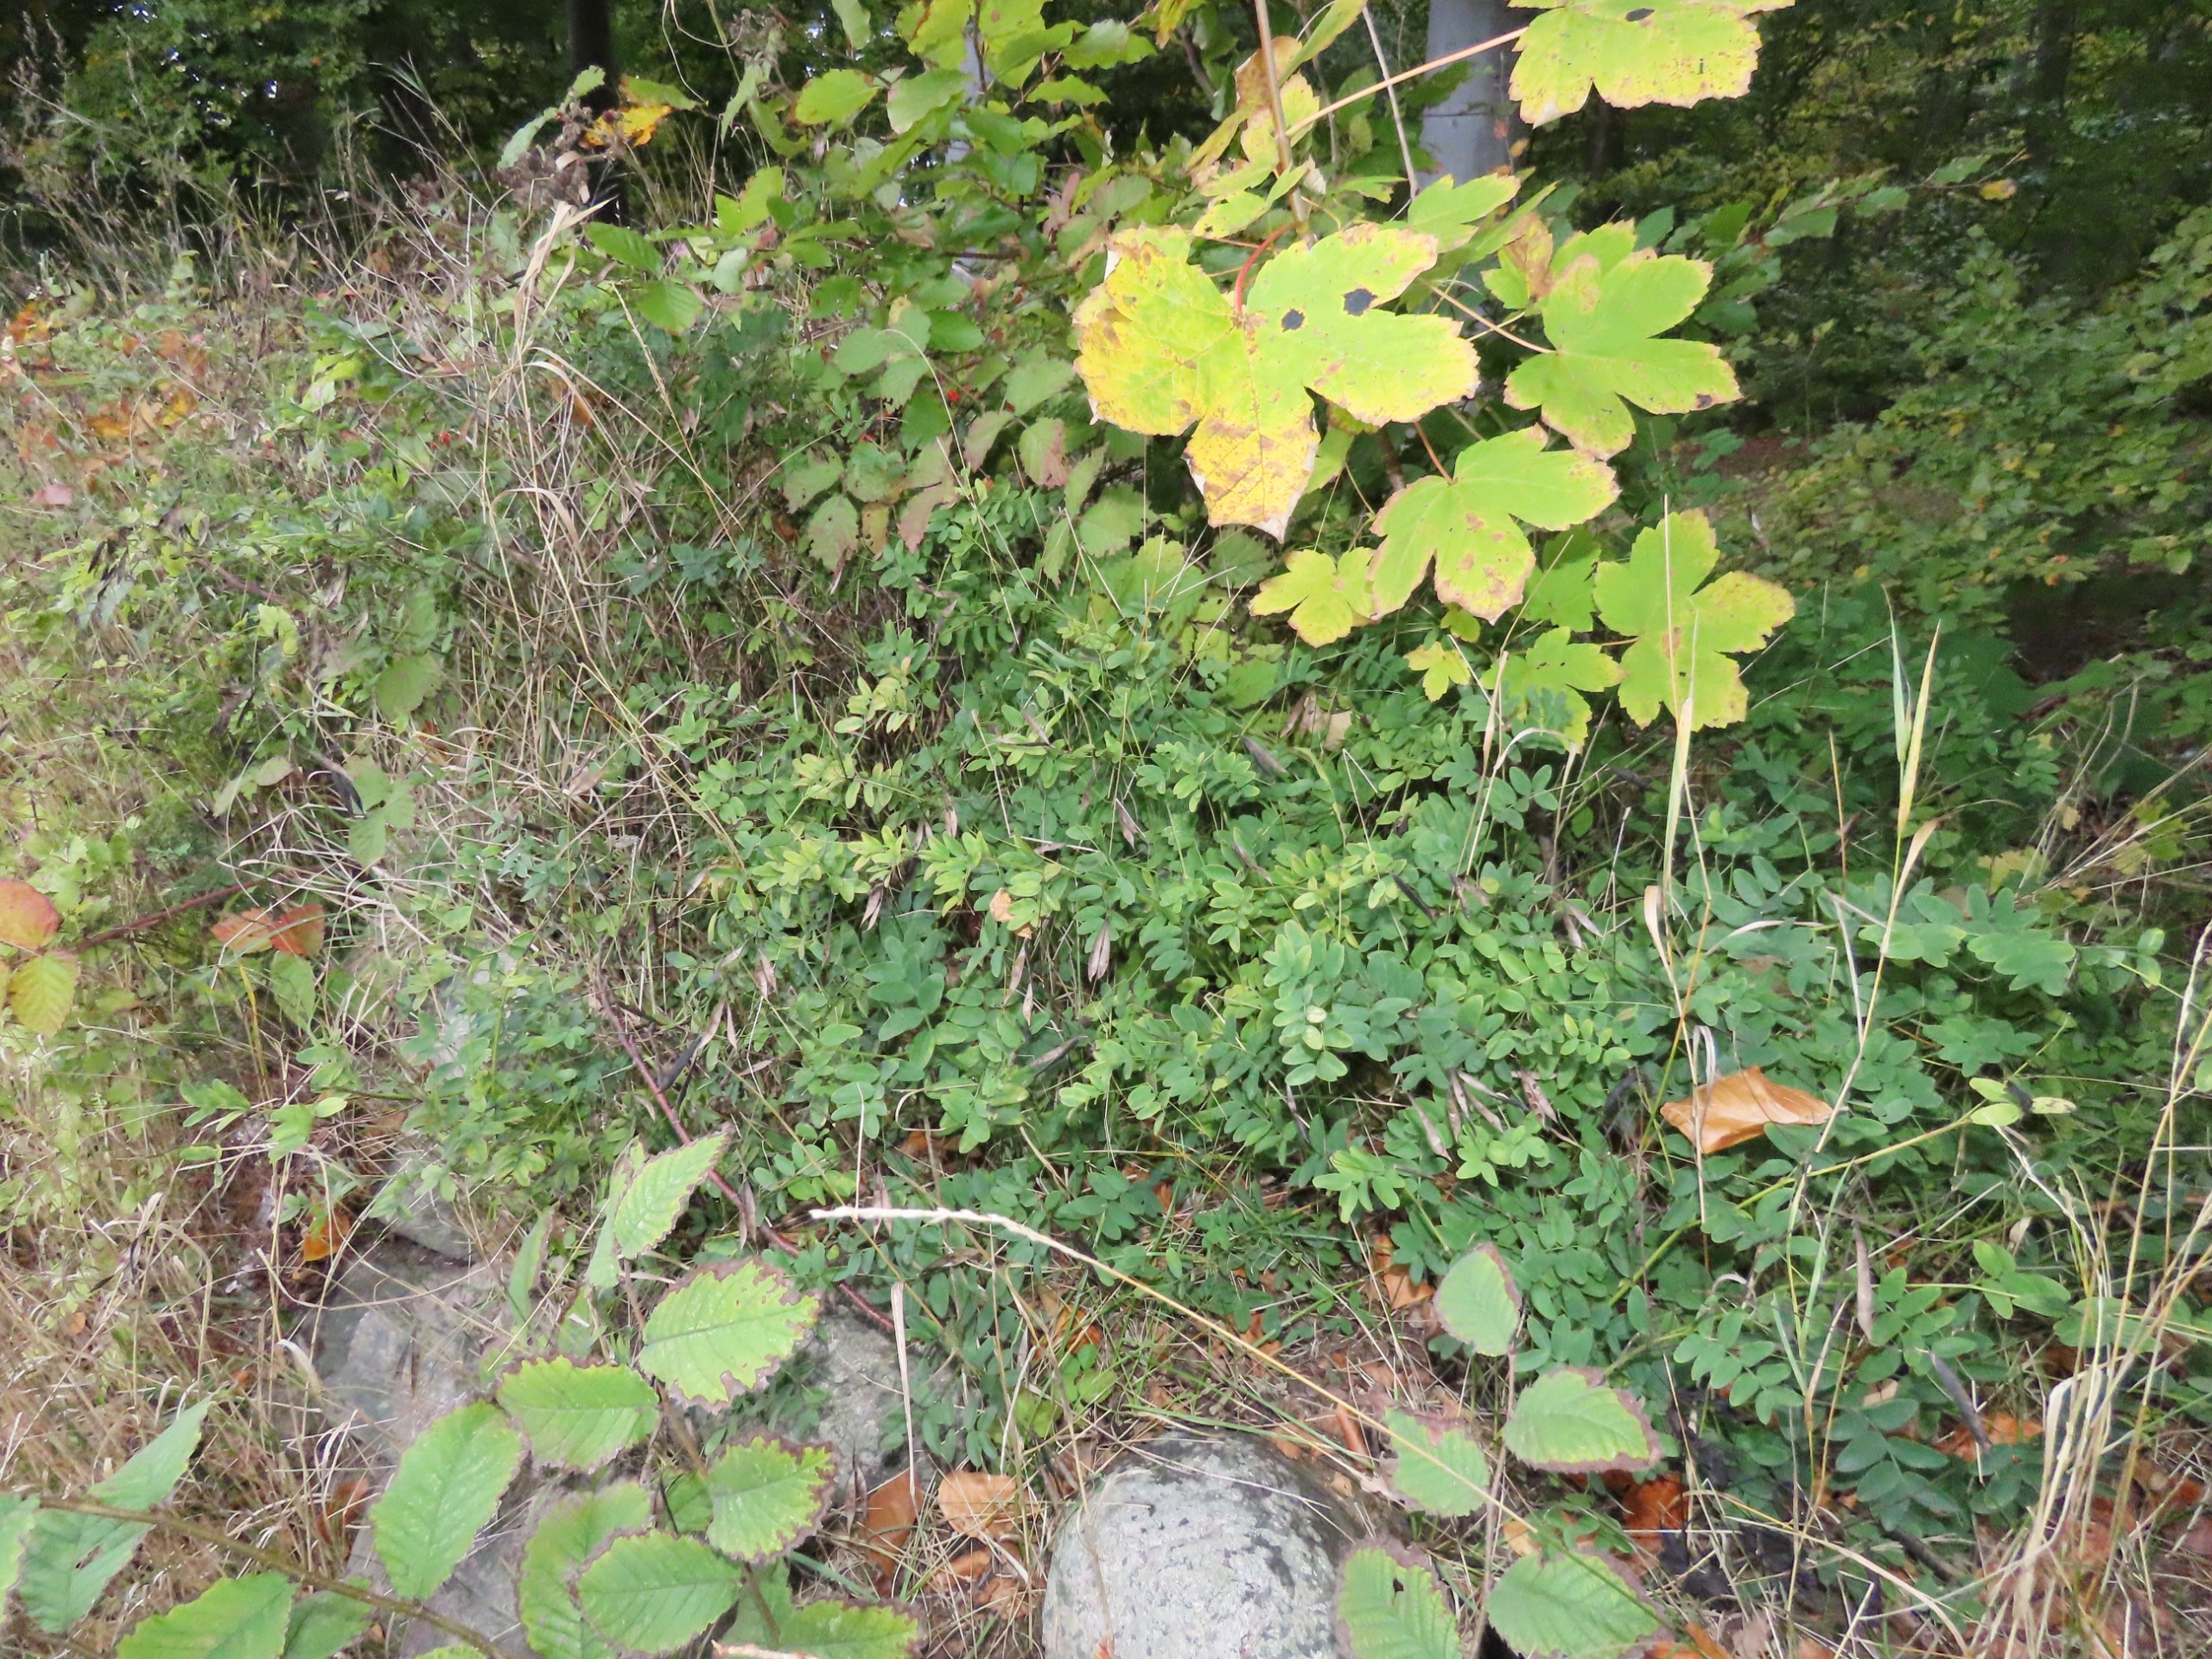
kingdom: Plantae
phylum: Tracheophyta
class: Magnoliopsida
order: Fabales
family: Fabaceae
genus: Lathyrus
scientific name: Lathyrus niger
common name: Sort fladbælg
